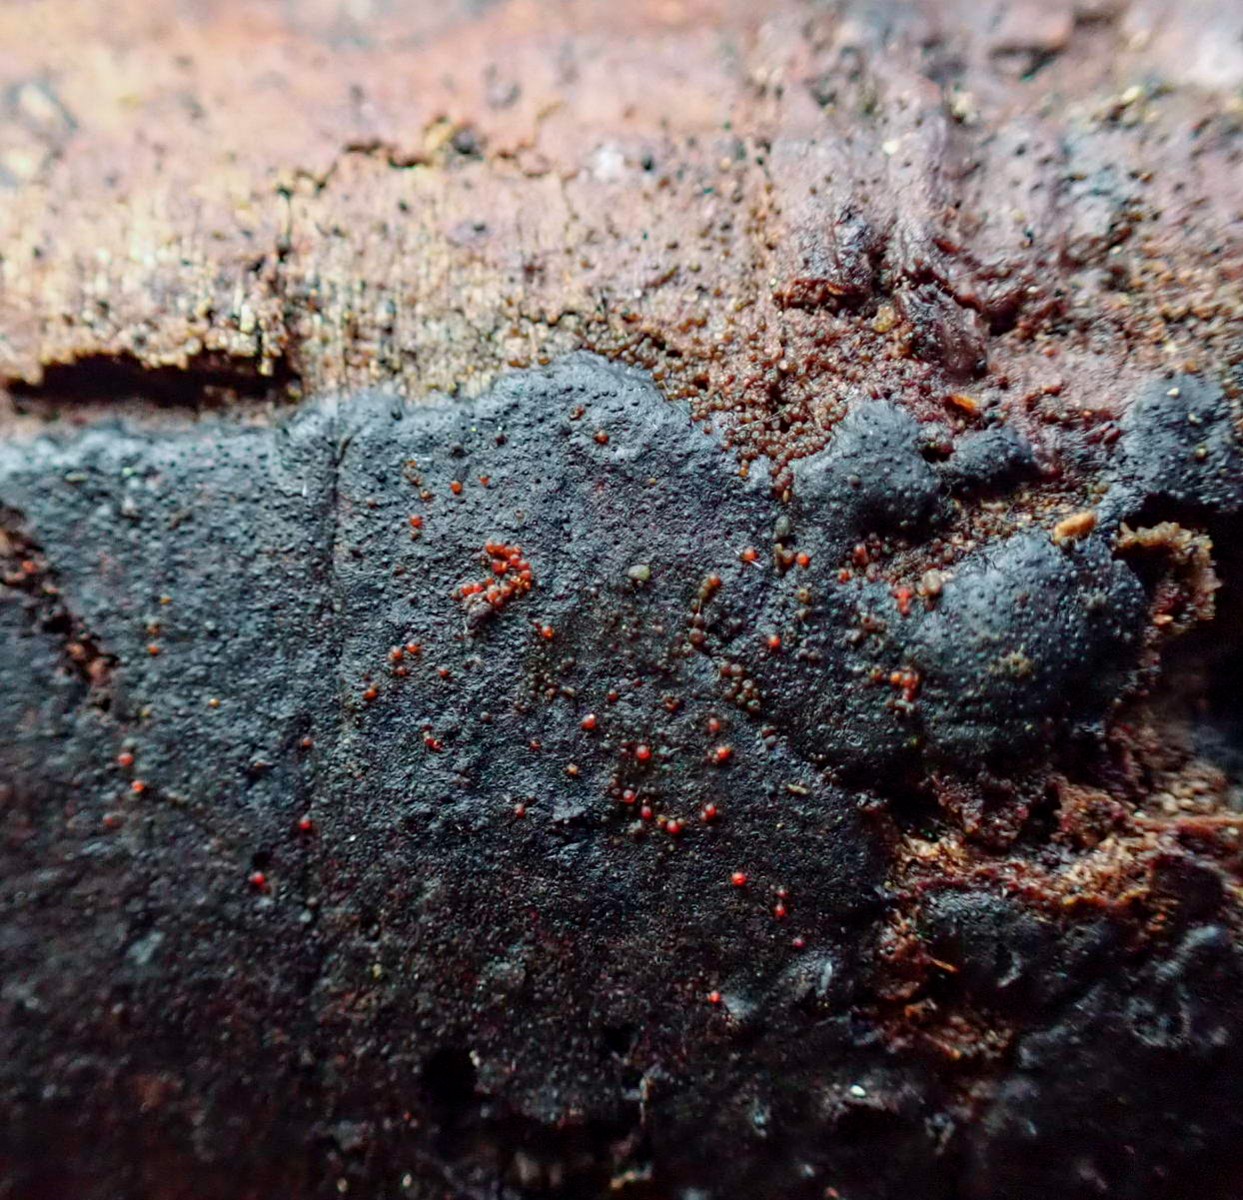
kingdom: Fungi
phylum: Ascomycota
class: Sordariomycetes
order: Hypocreales
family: Nectriaceae
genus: Dialonectria
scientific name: Dialonectria episphaeria
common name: kulskorpe-cinnobersvamp
